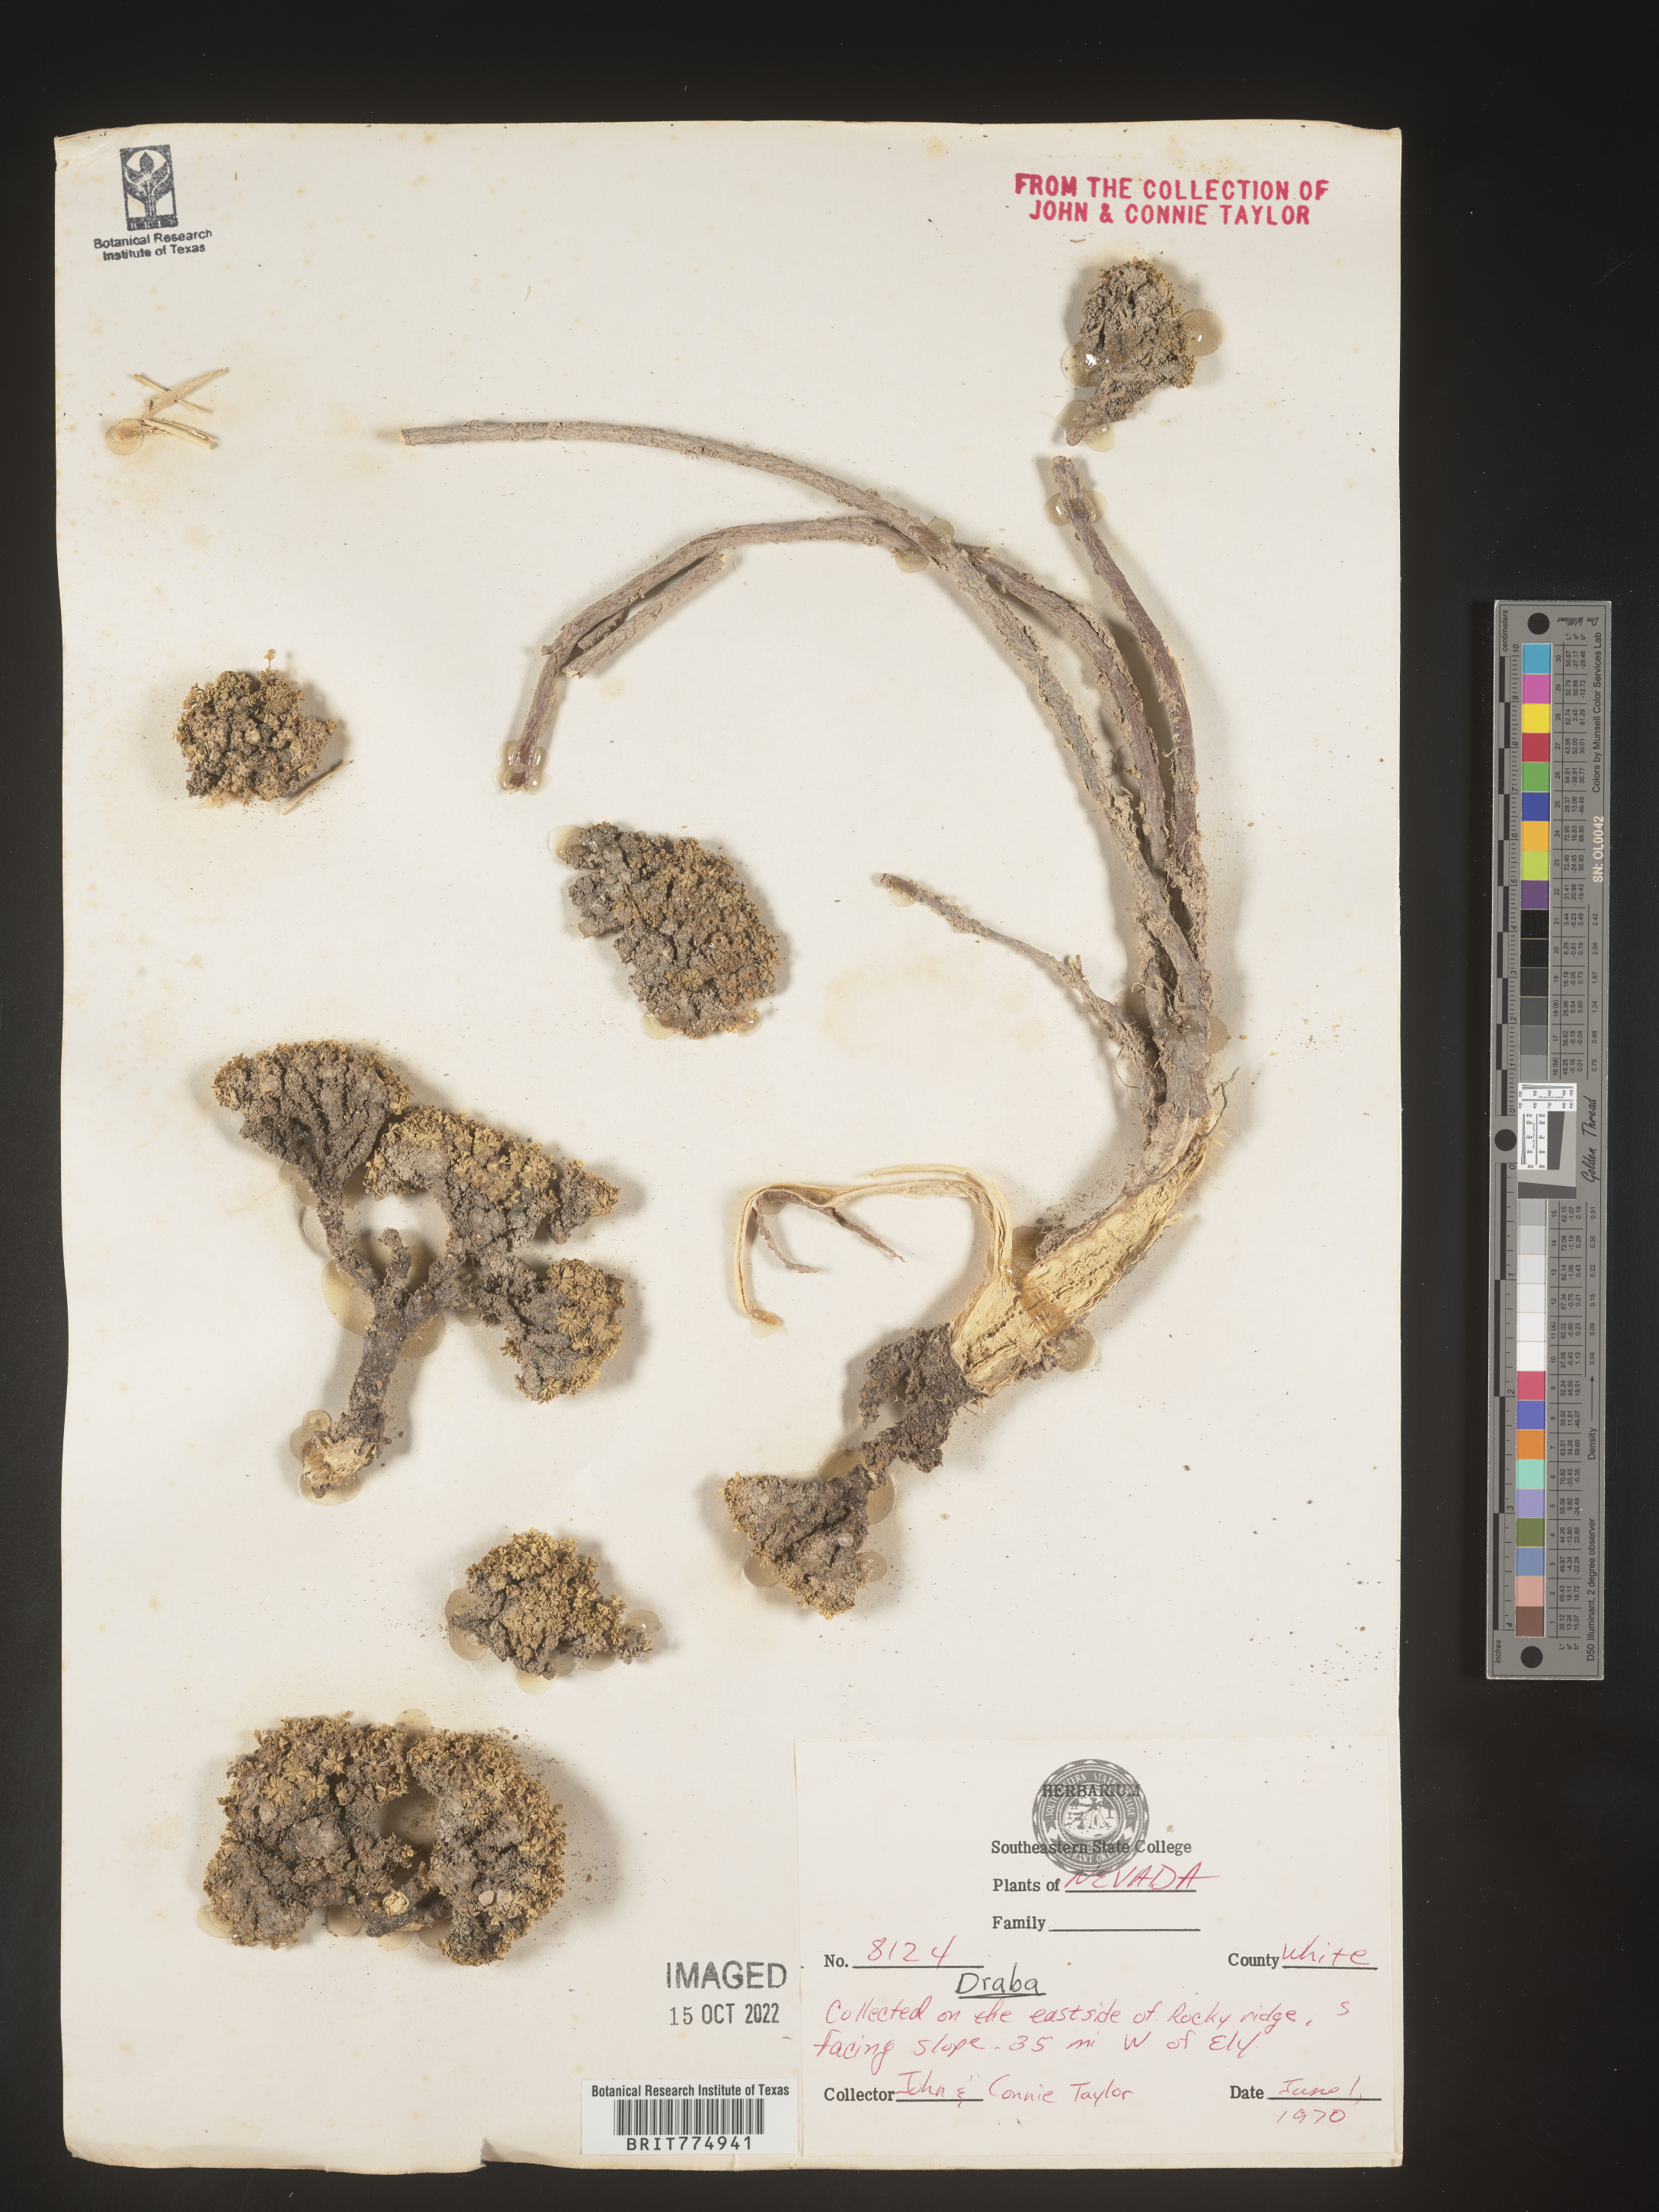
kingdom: Plantae
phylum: Tracheophyta
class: Magnoliopsida
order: Brassicales
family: Brassicaceae
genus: Draba
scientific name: Draba
